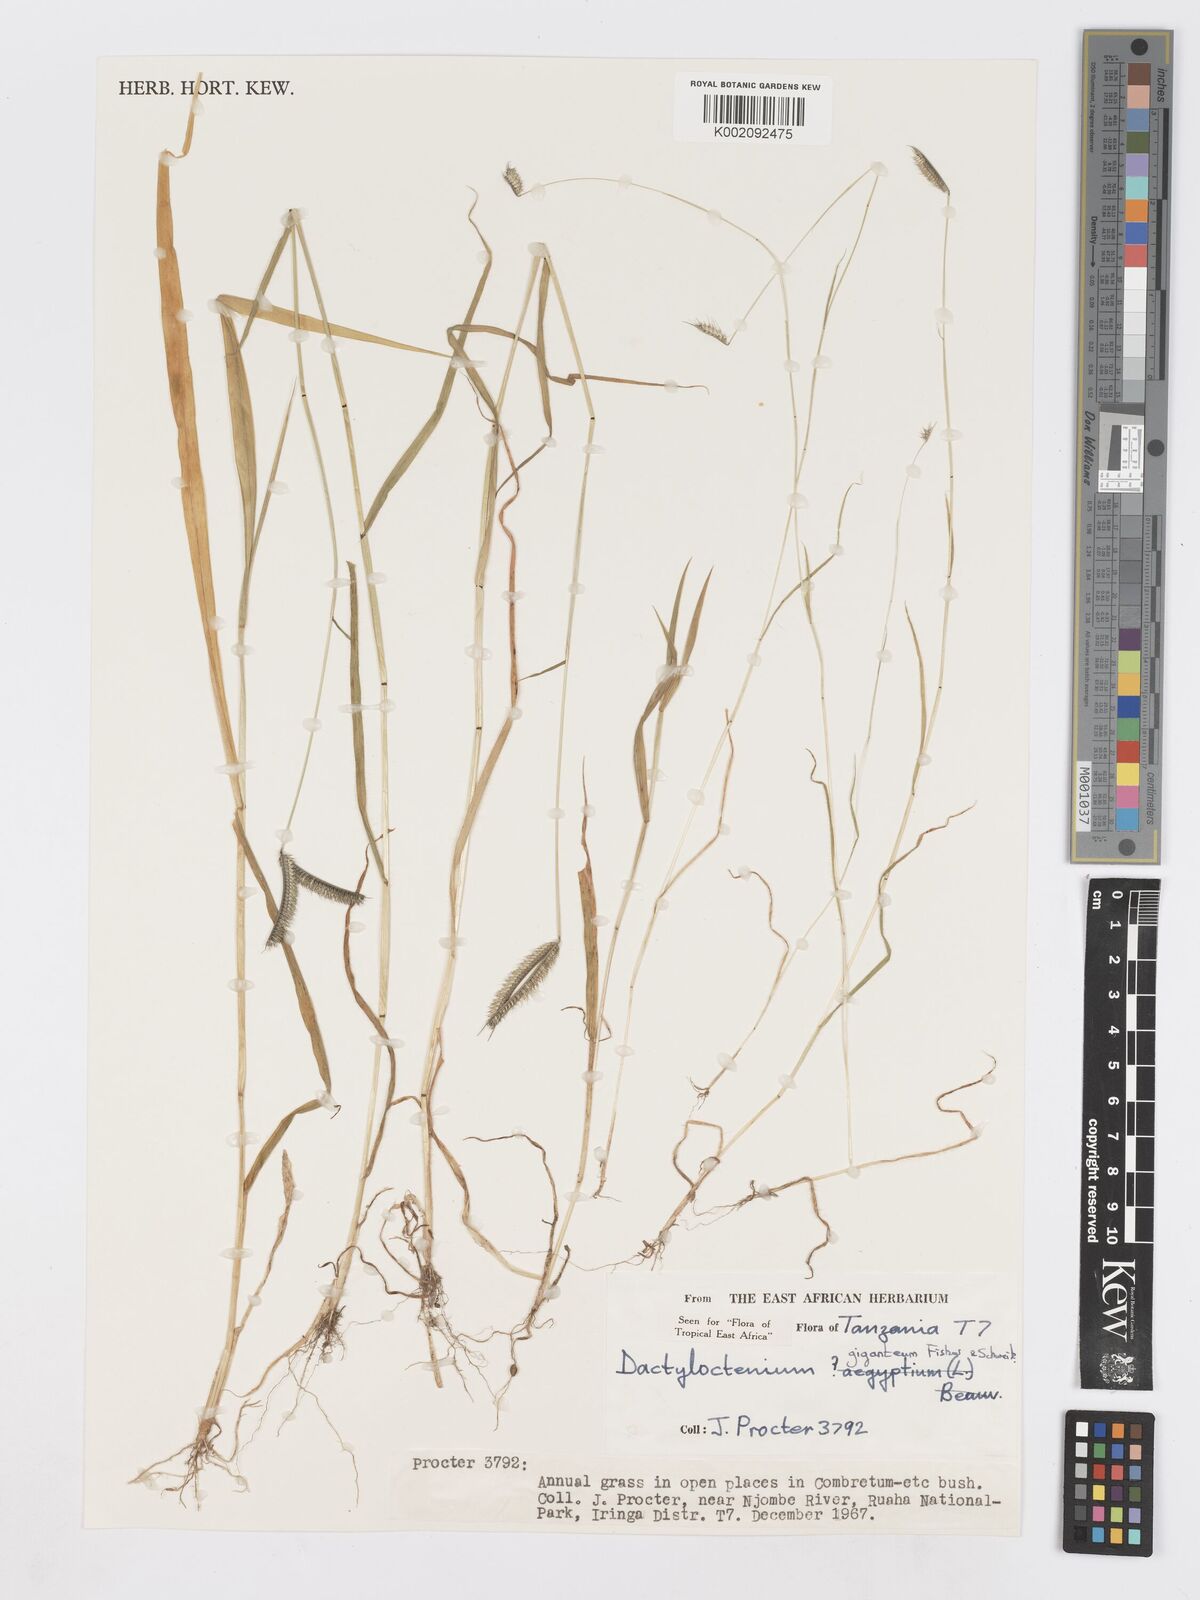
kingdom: Plantae
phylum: Tracheophyta
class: Liliopsida
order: Poales
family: Poaceae
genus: Dactyloctenium
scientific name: Dactyloctenium giganteum
